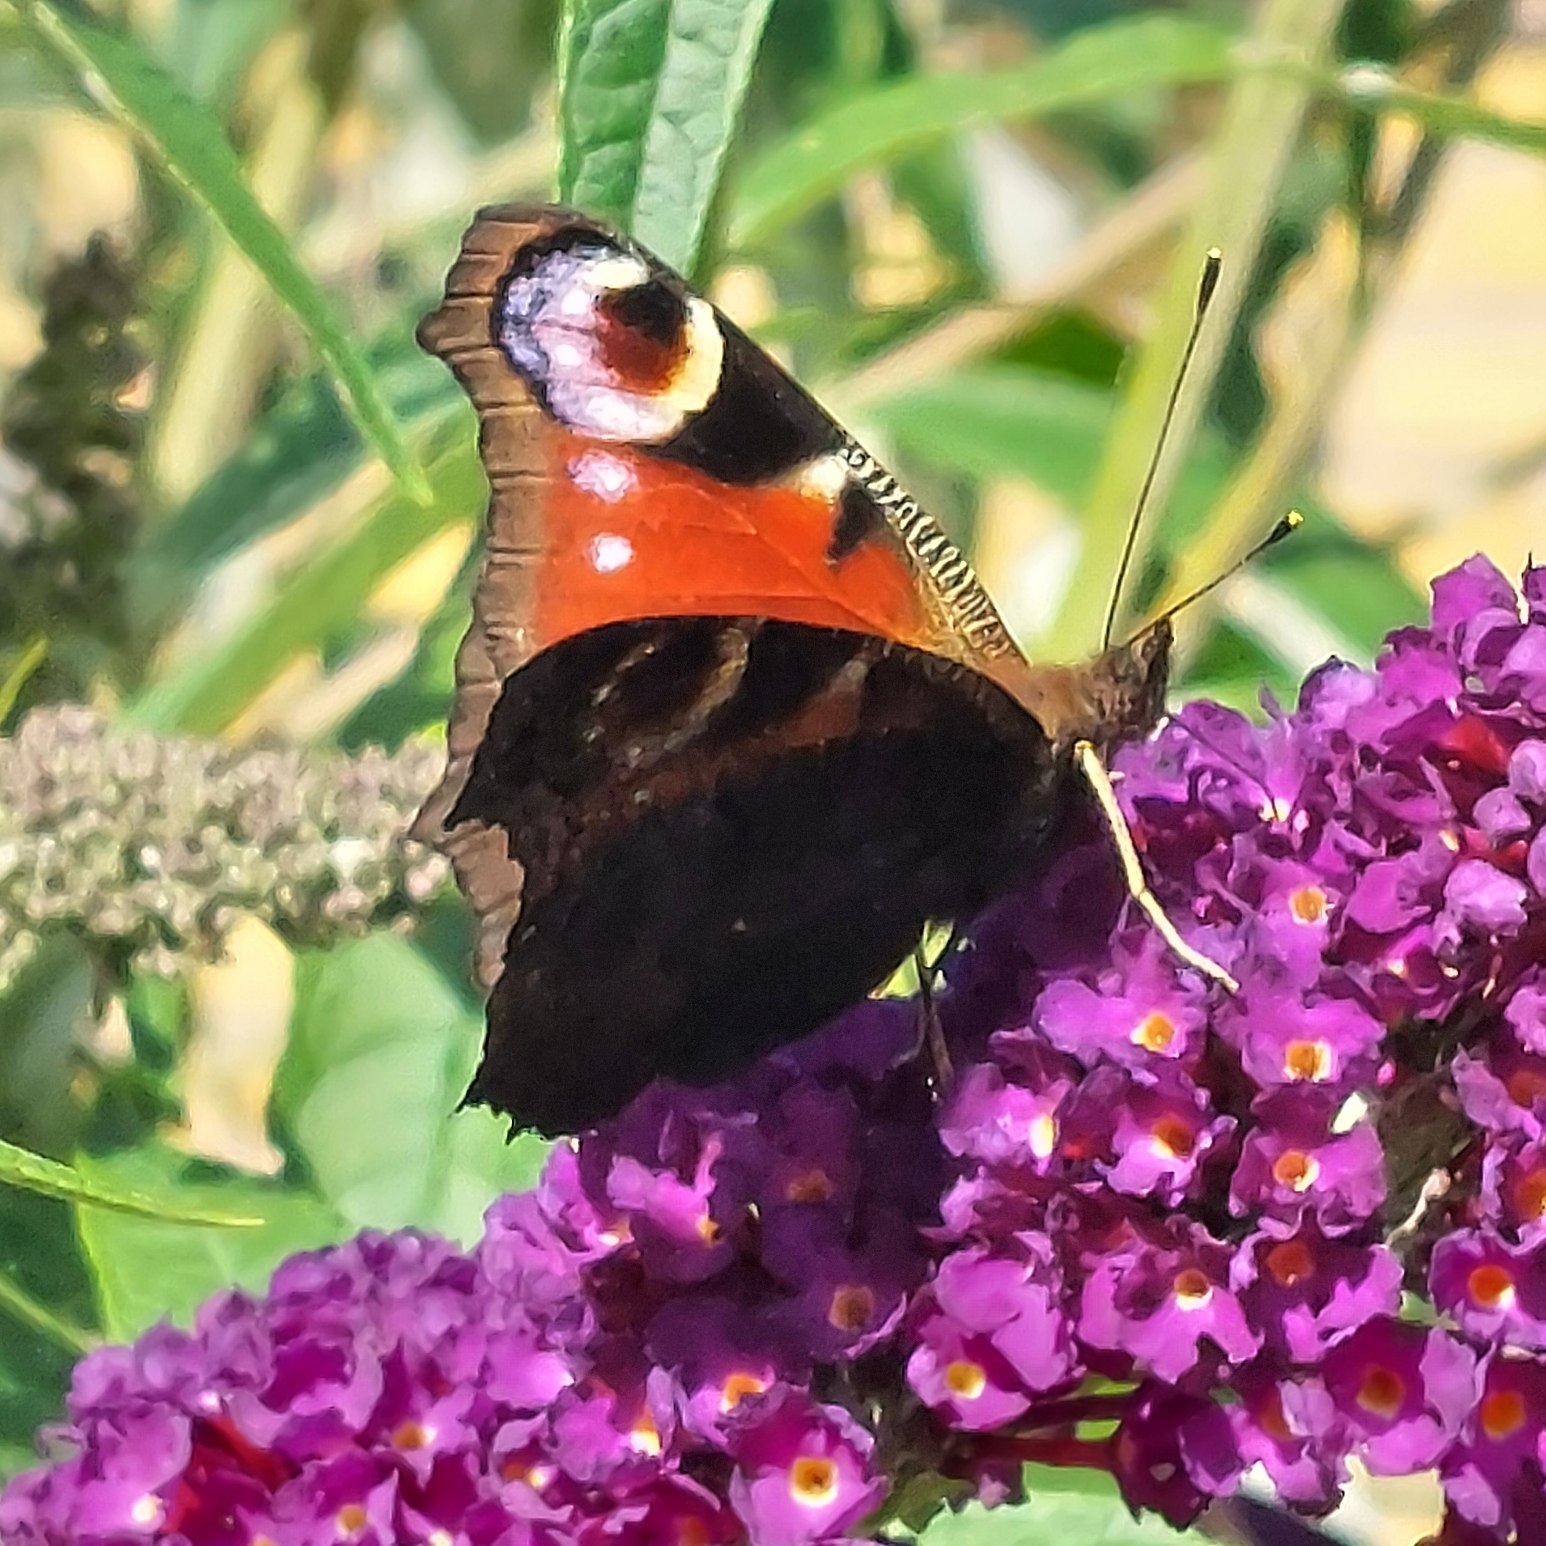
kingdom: Animalia
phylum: Arthropoda
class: Insecta
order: Lepidoptera
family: Nymphalidae
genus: Aglais
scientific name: Aglais io
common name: Dagpåfugleøje
